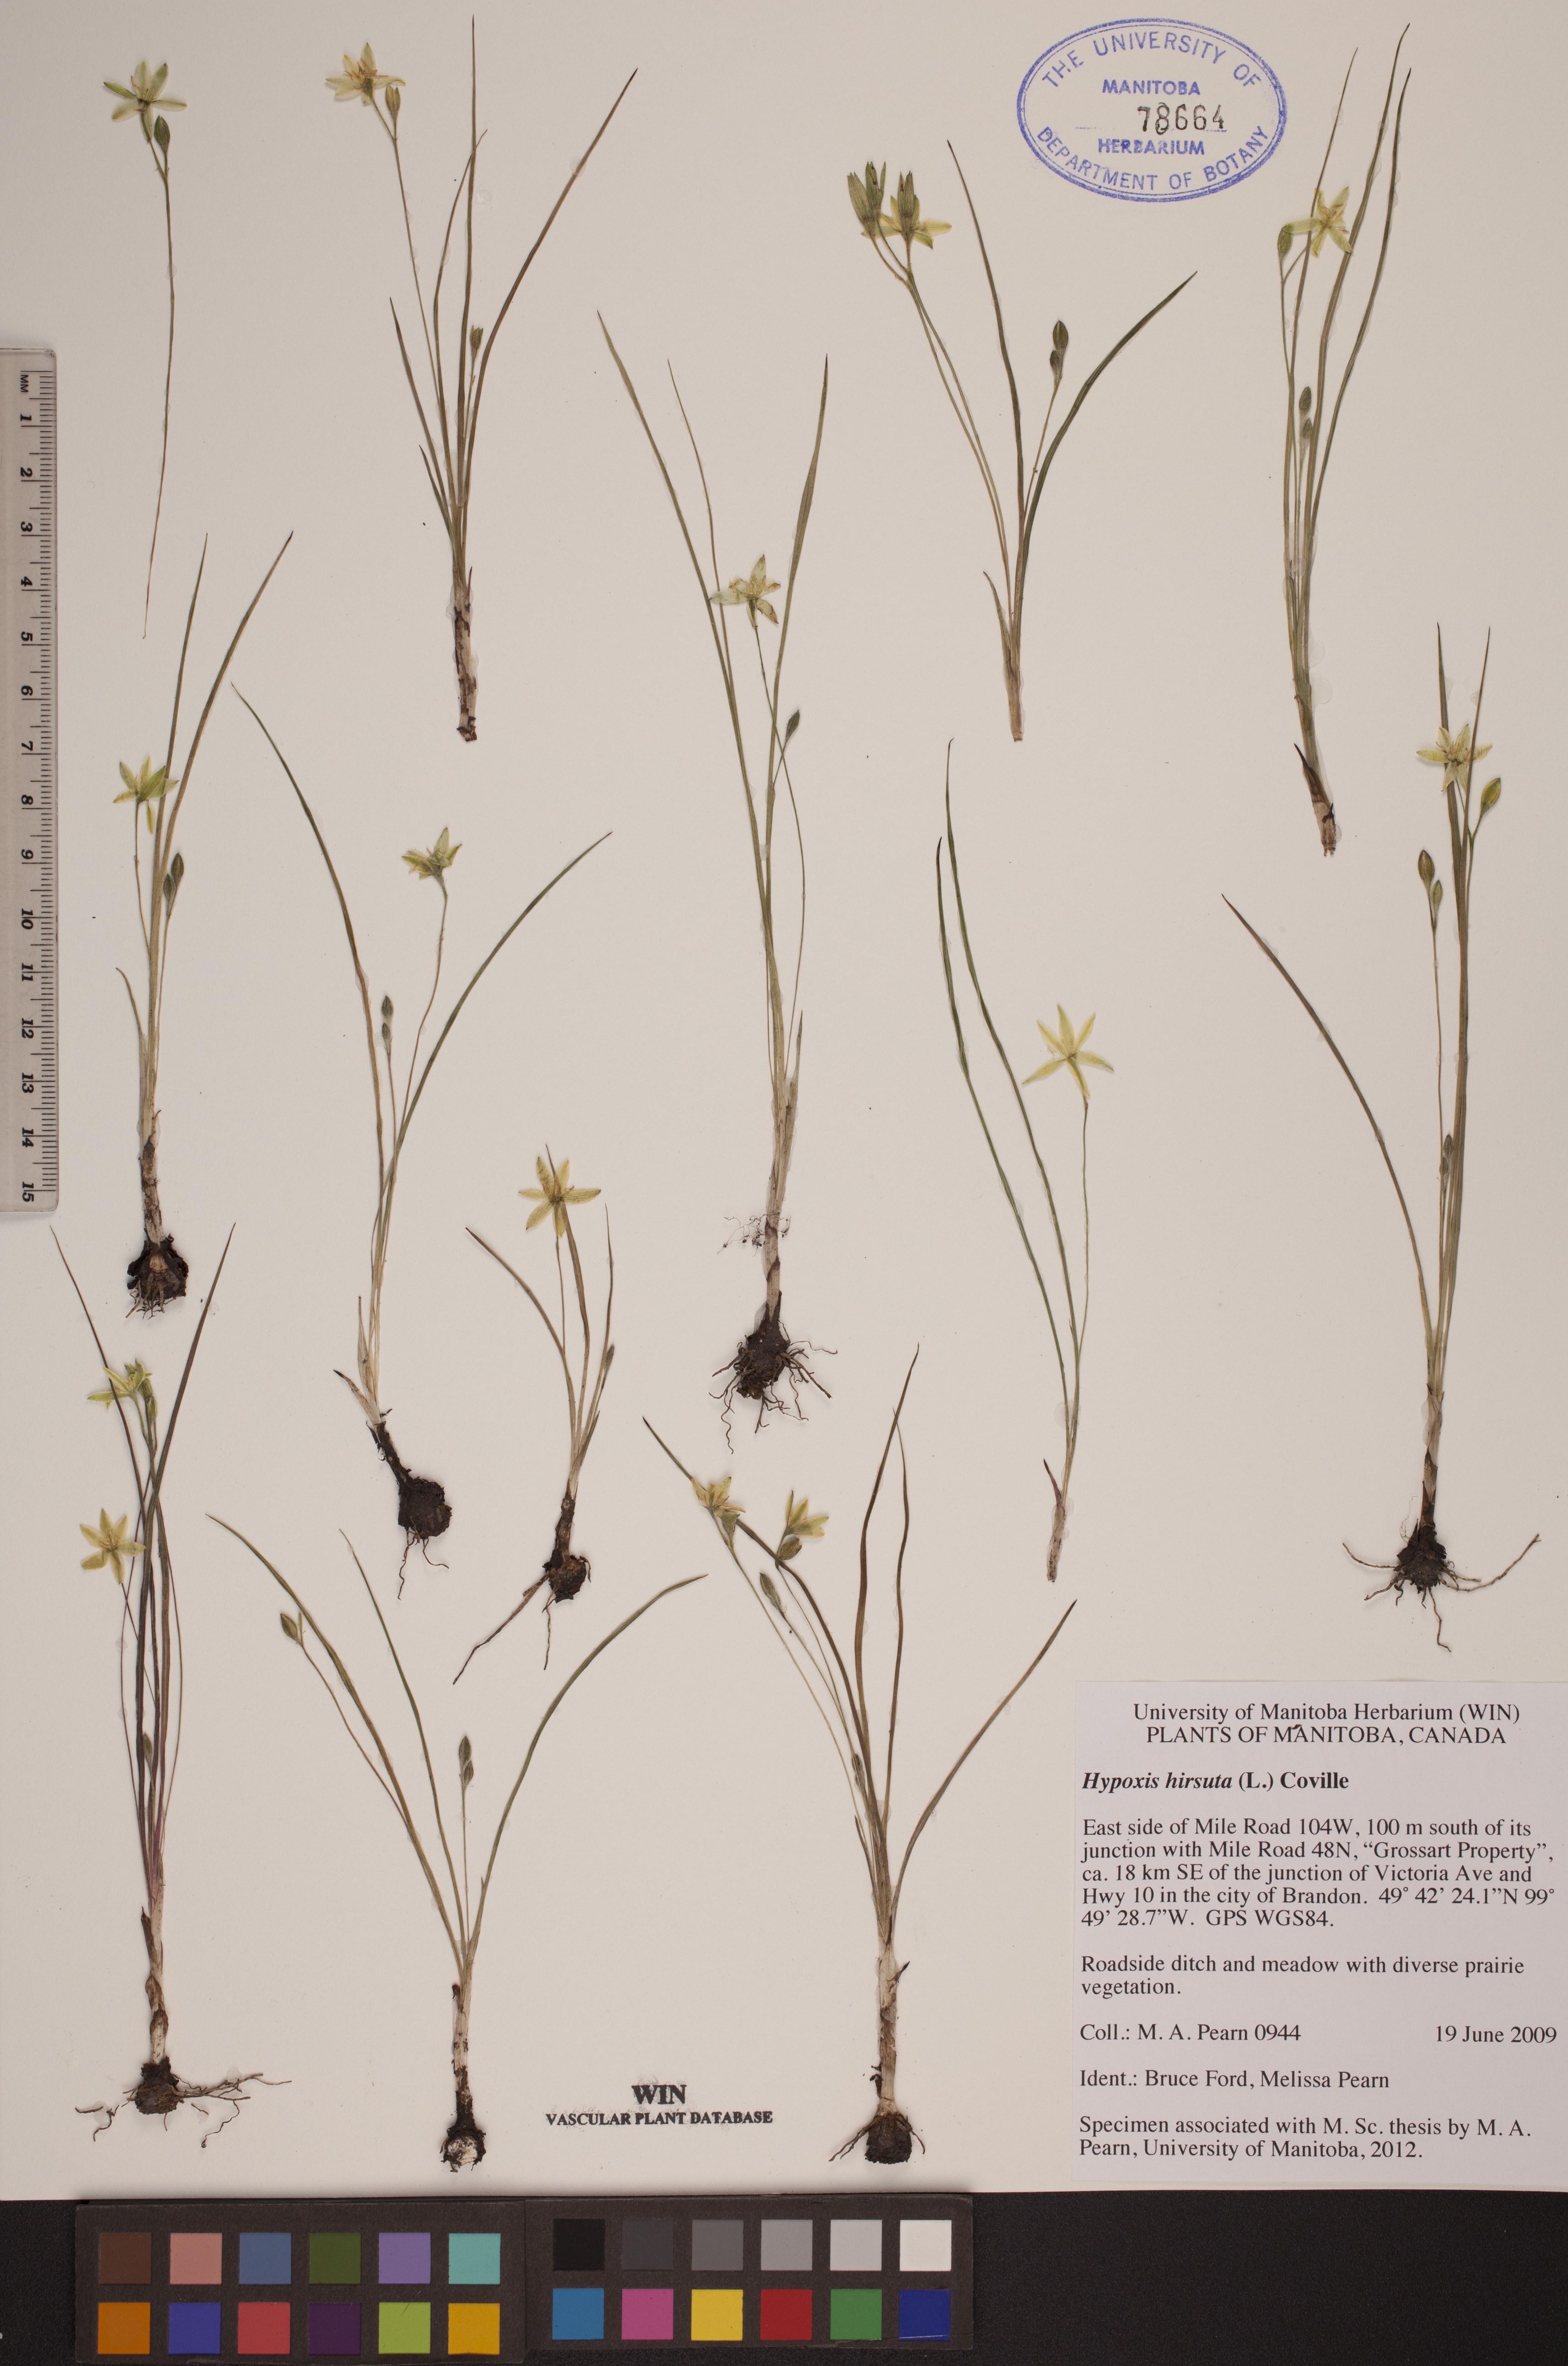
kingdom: Plantae
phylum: Tracheophyta
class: Liliopsida
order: Asparagales
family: Hypoxidaceae
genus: Hypoxis
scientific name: Hypoxis hirsuta
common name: Common goldstar
